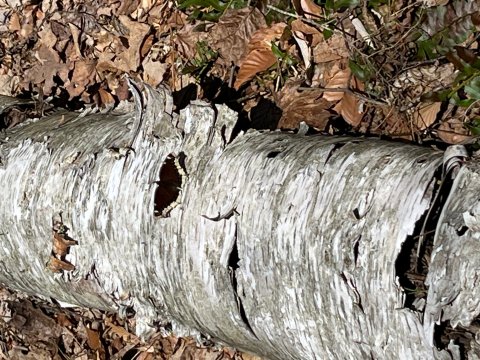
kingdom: Animalia
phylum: Arthropoda
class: Insecta
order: Lepidoptera
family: Nymphalidae
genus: Nymphalis
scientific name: Nymphalis antiopa
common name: Mourning Cloak
